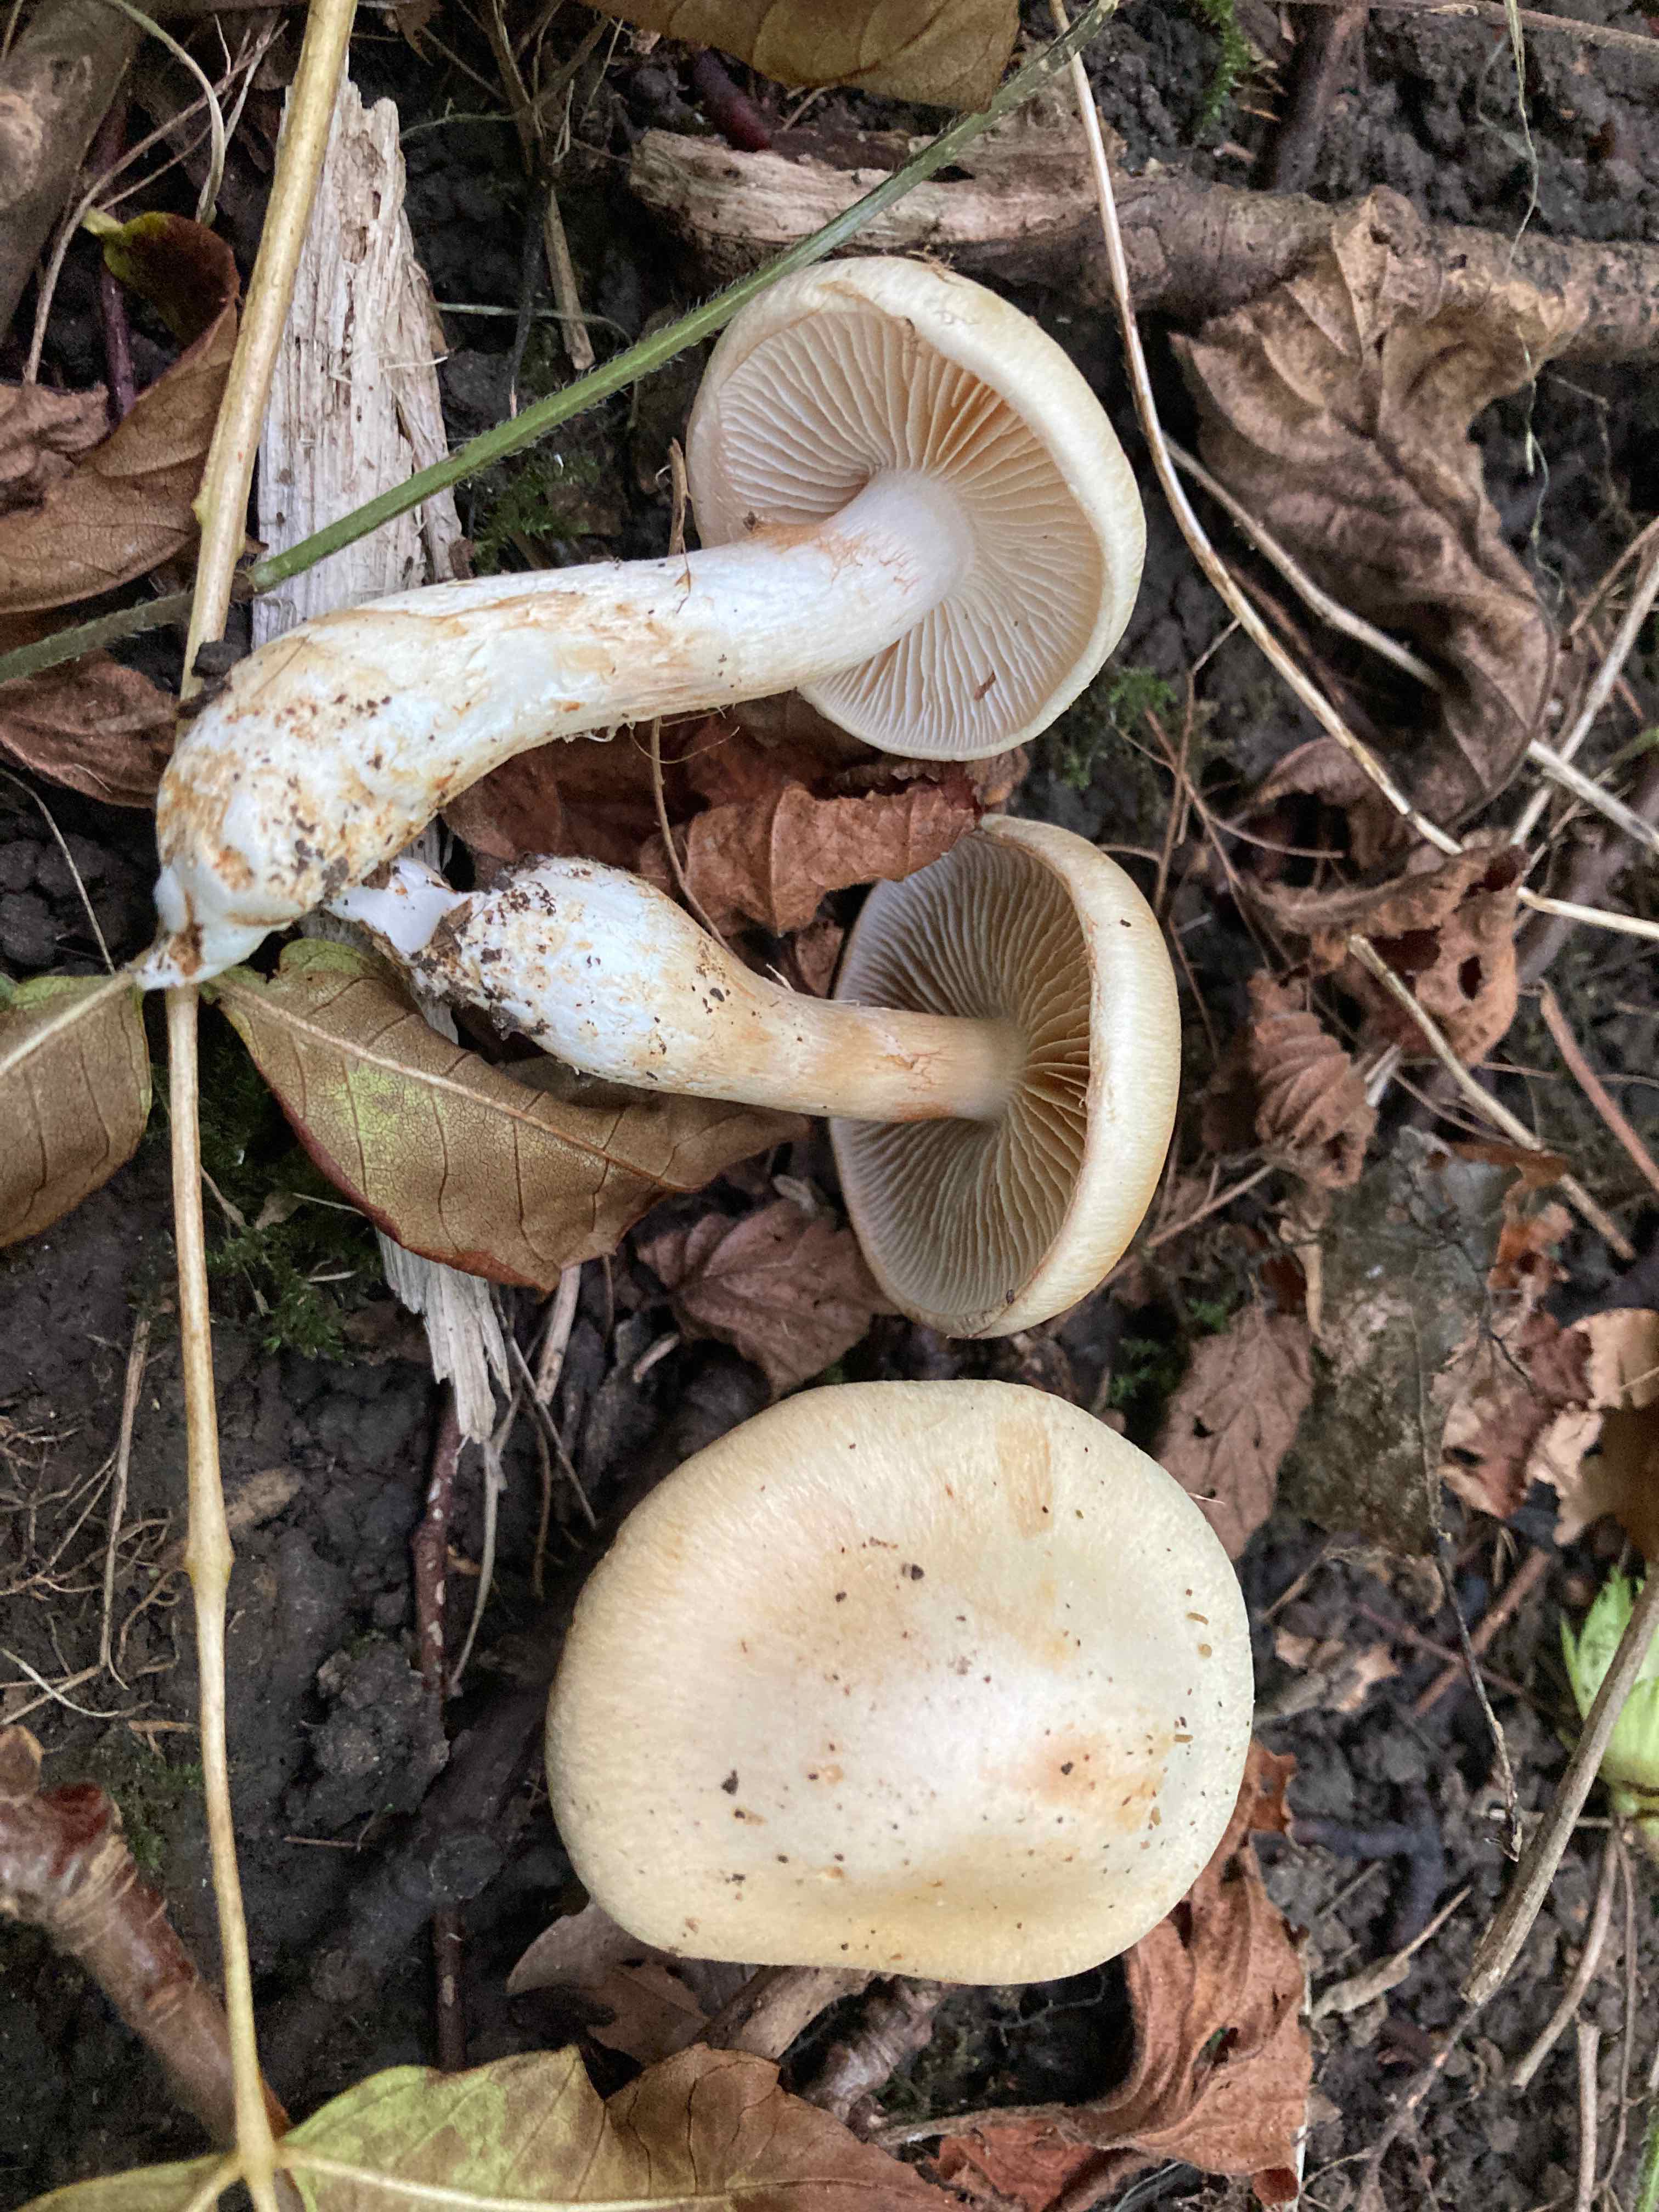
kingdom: Fungi
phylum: Basidiomycota
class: Agaricomycetes
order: Agaricales
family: Cortinariaceae
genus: Phlegmacium
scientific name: Phlegmacium argutum
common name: hvidlig slørhat
